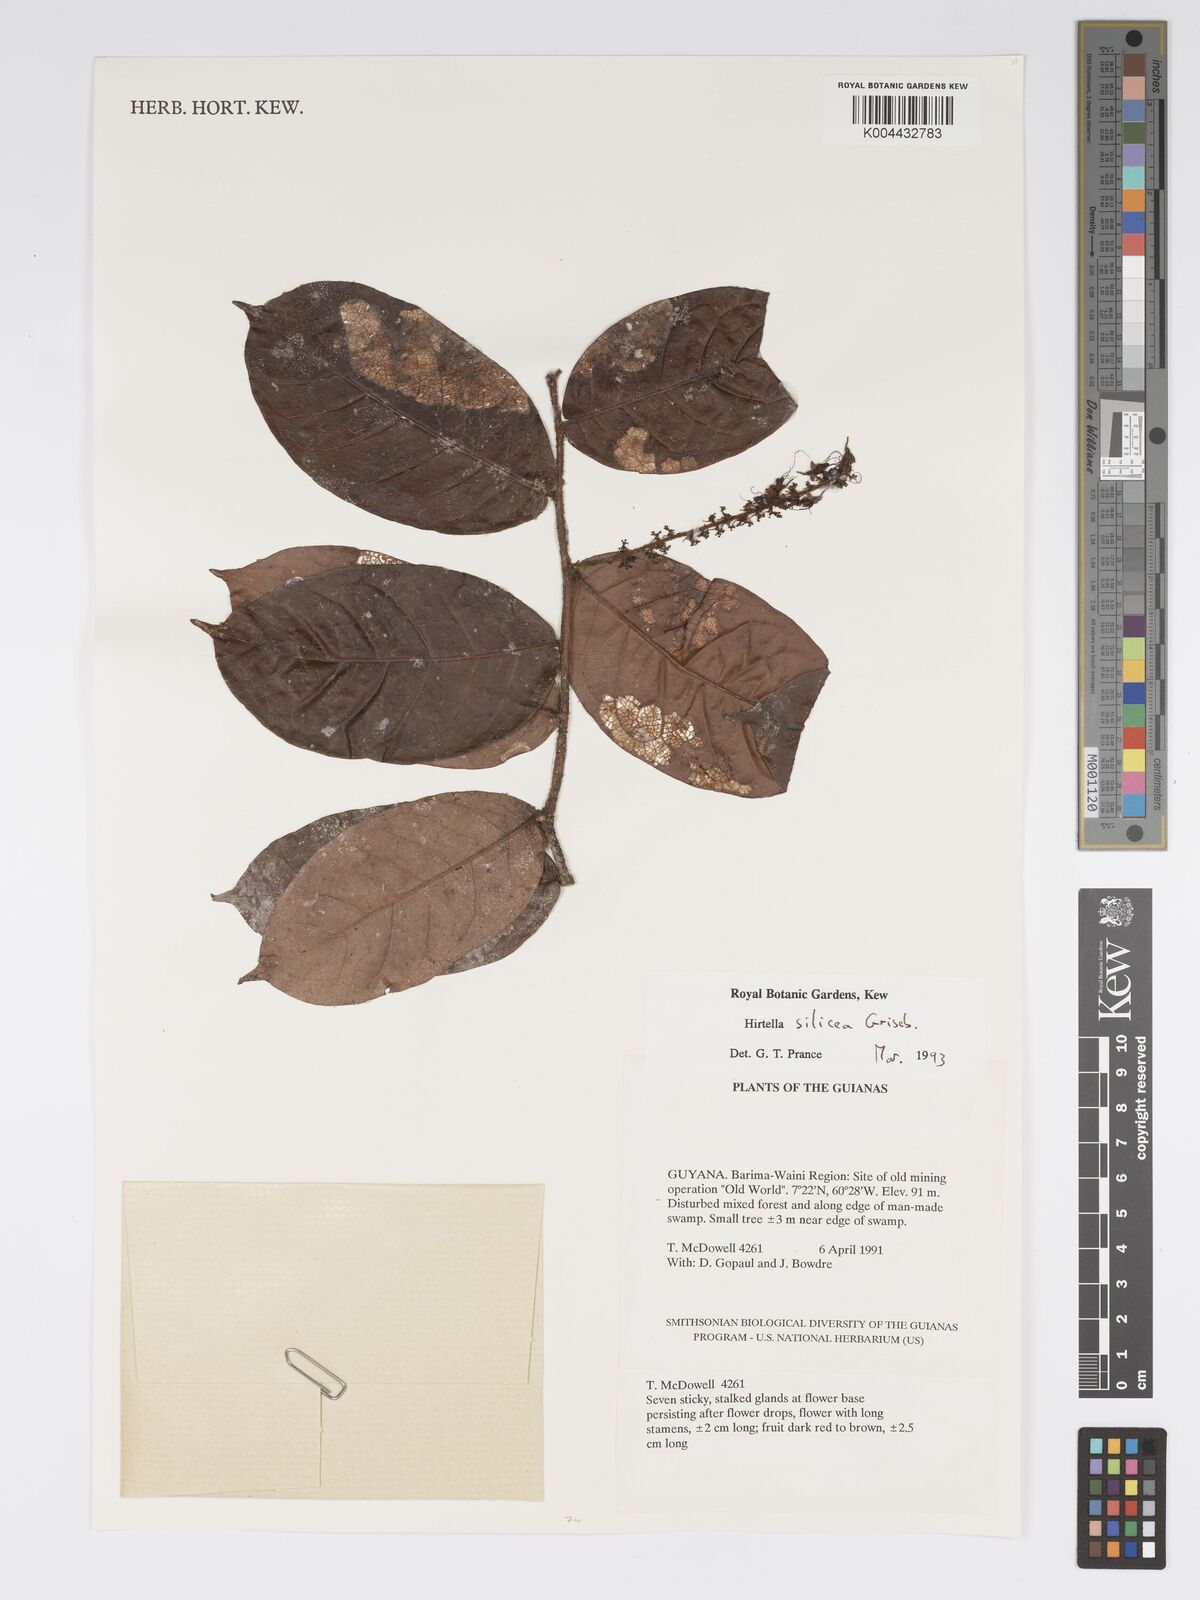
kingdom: Plantae
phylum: Tracheophyta
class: Magnoliopsida
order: Malpighiales
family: Chrysobalanaceae
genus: Hirtella
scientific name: Hirtella silicea
